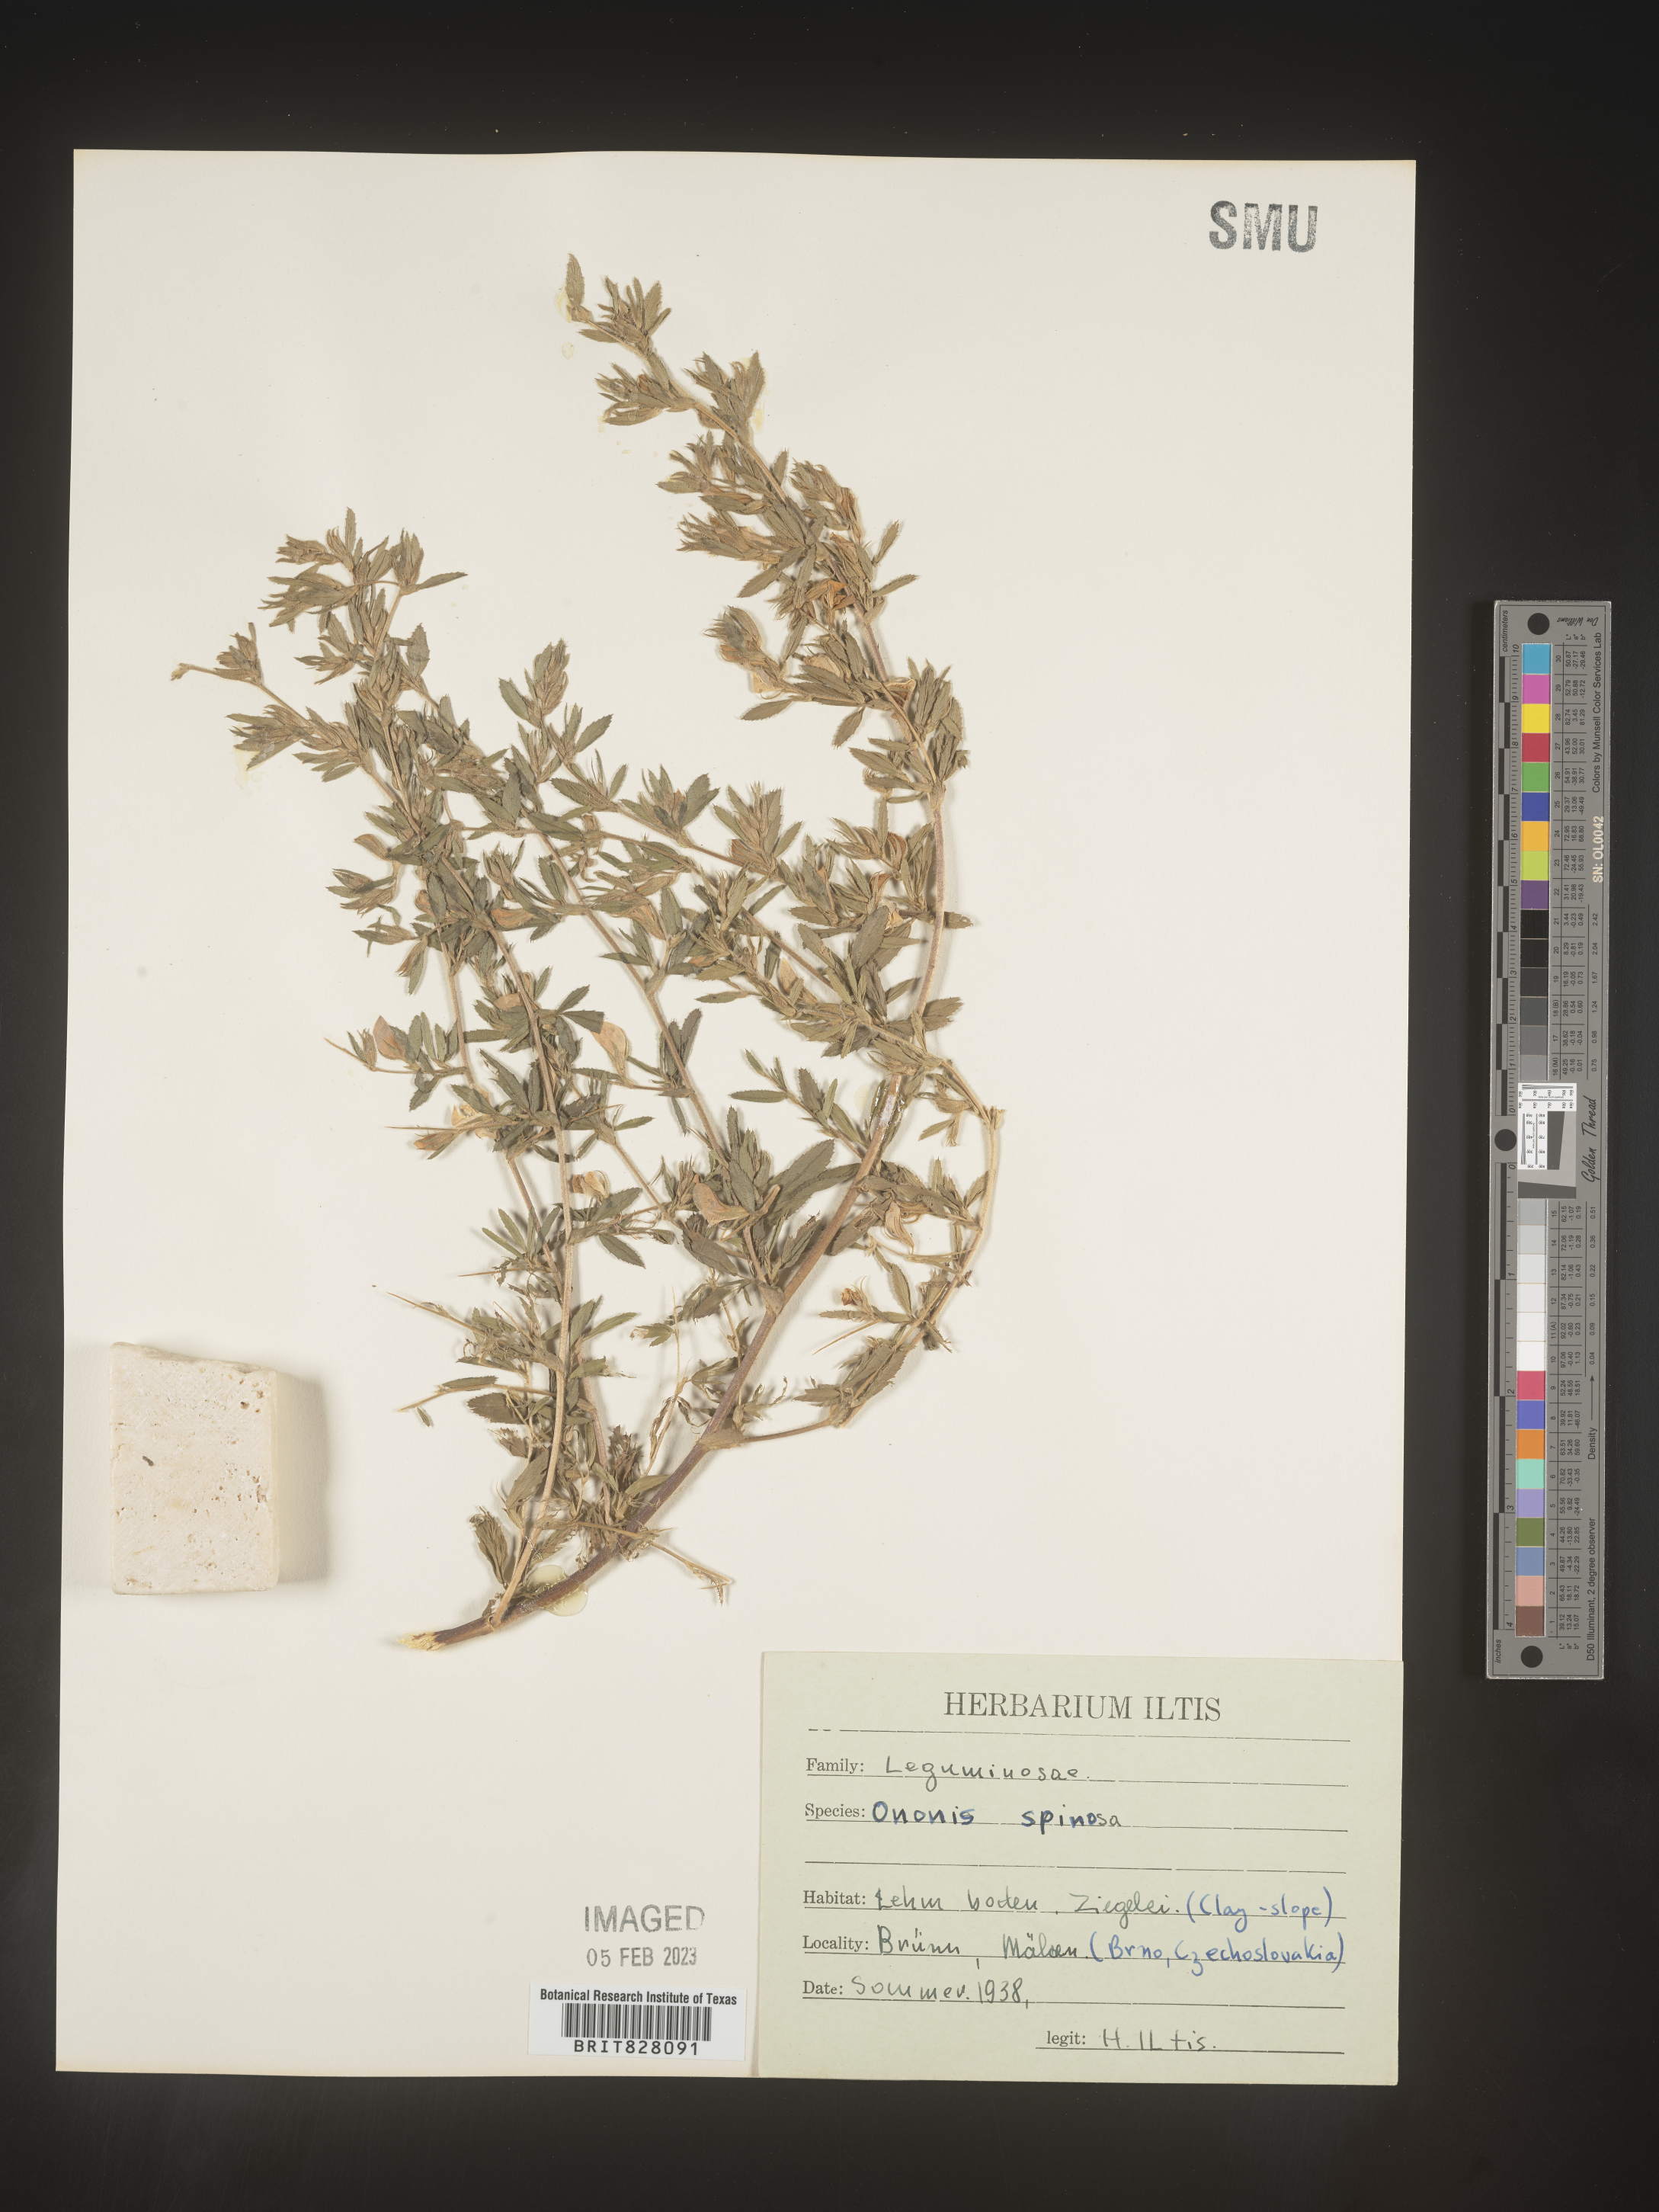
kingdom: Plantae
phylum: Tracheophyta
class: Magnoliopsida
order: Fabales
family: Fabaceae
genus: Ononis
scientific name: Ononis
